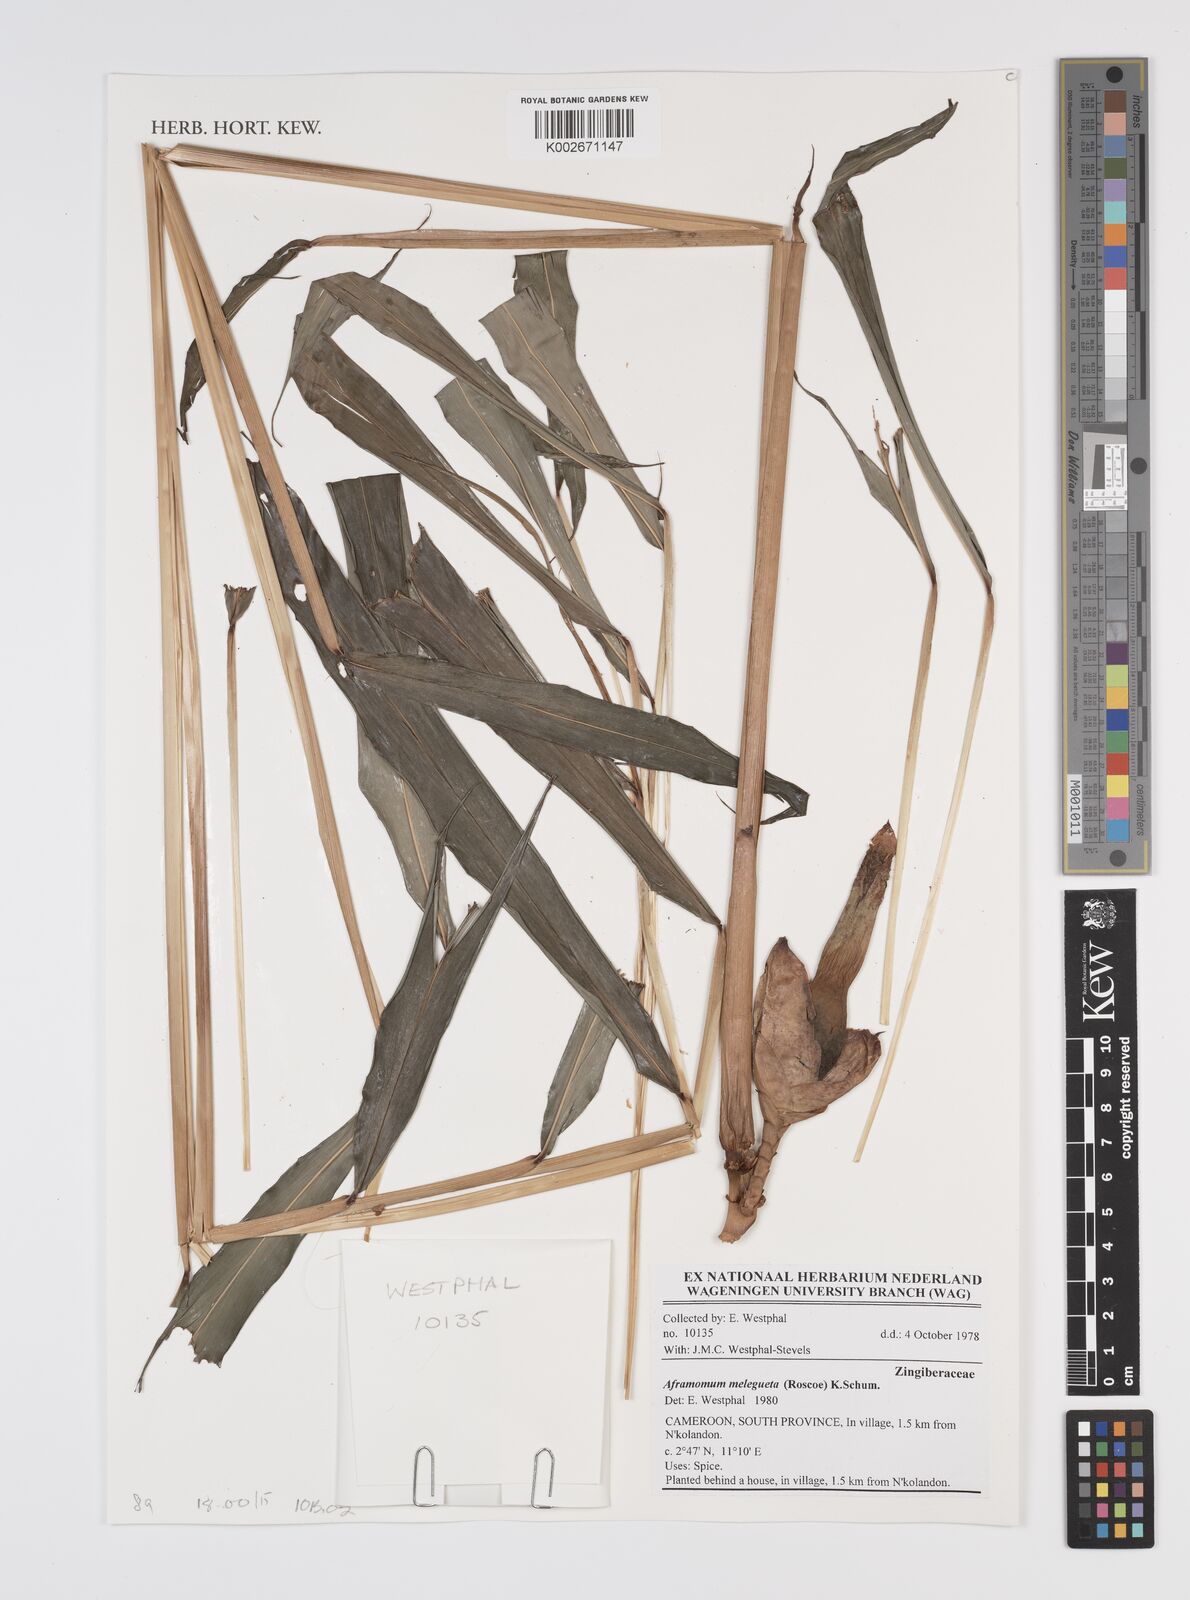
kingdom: Plantae
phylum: Tracheophyta
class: Liliopsida
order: Zingiberales
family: Zingiberaceae
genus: Aframomum
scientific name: Aframomum melegueta
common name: Grains of paradise
